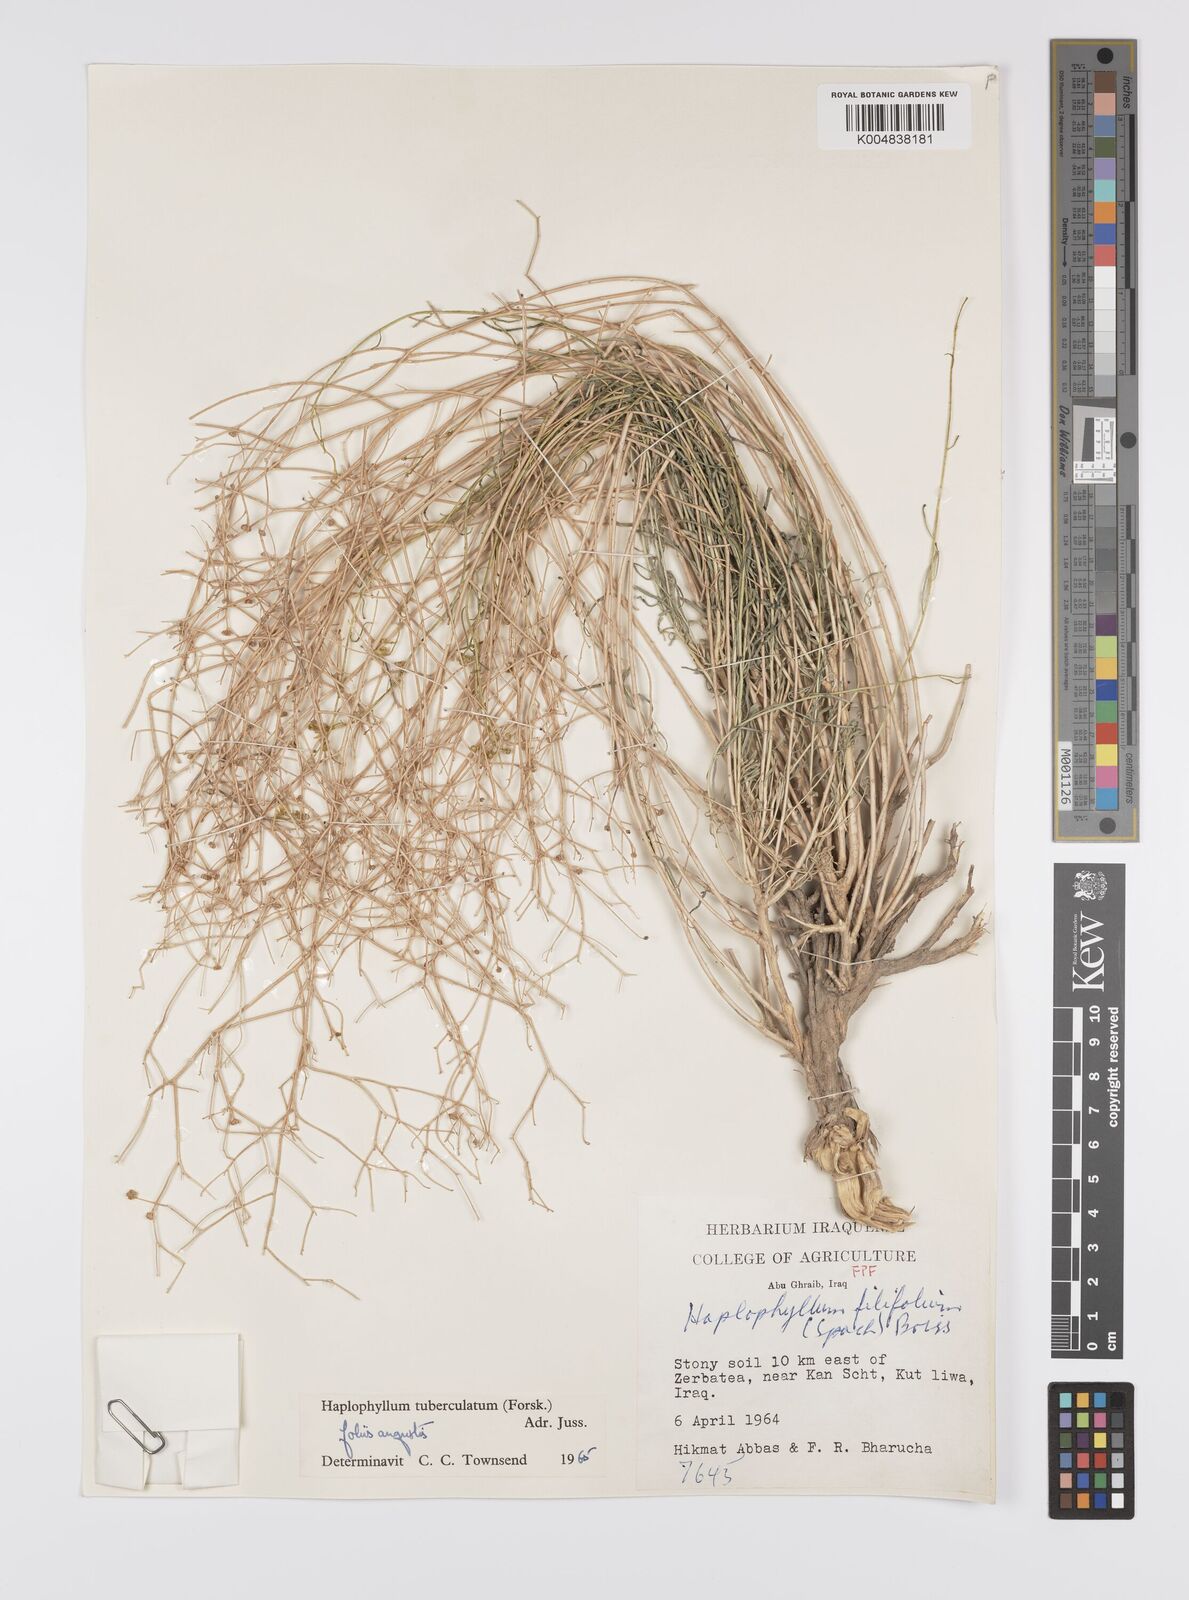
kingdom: Plantae
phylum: Tracheophyta
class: Magnoliopsida
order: Sapindales
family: Rutaceae
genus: Haplophyllum
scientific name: Haplophyllum tuberculatum
